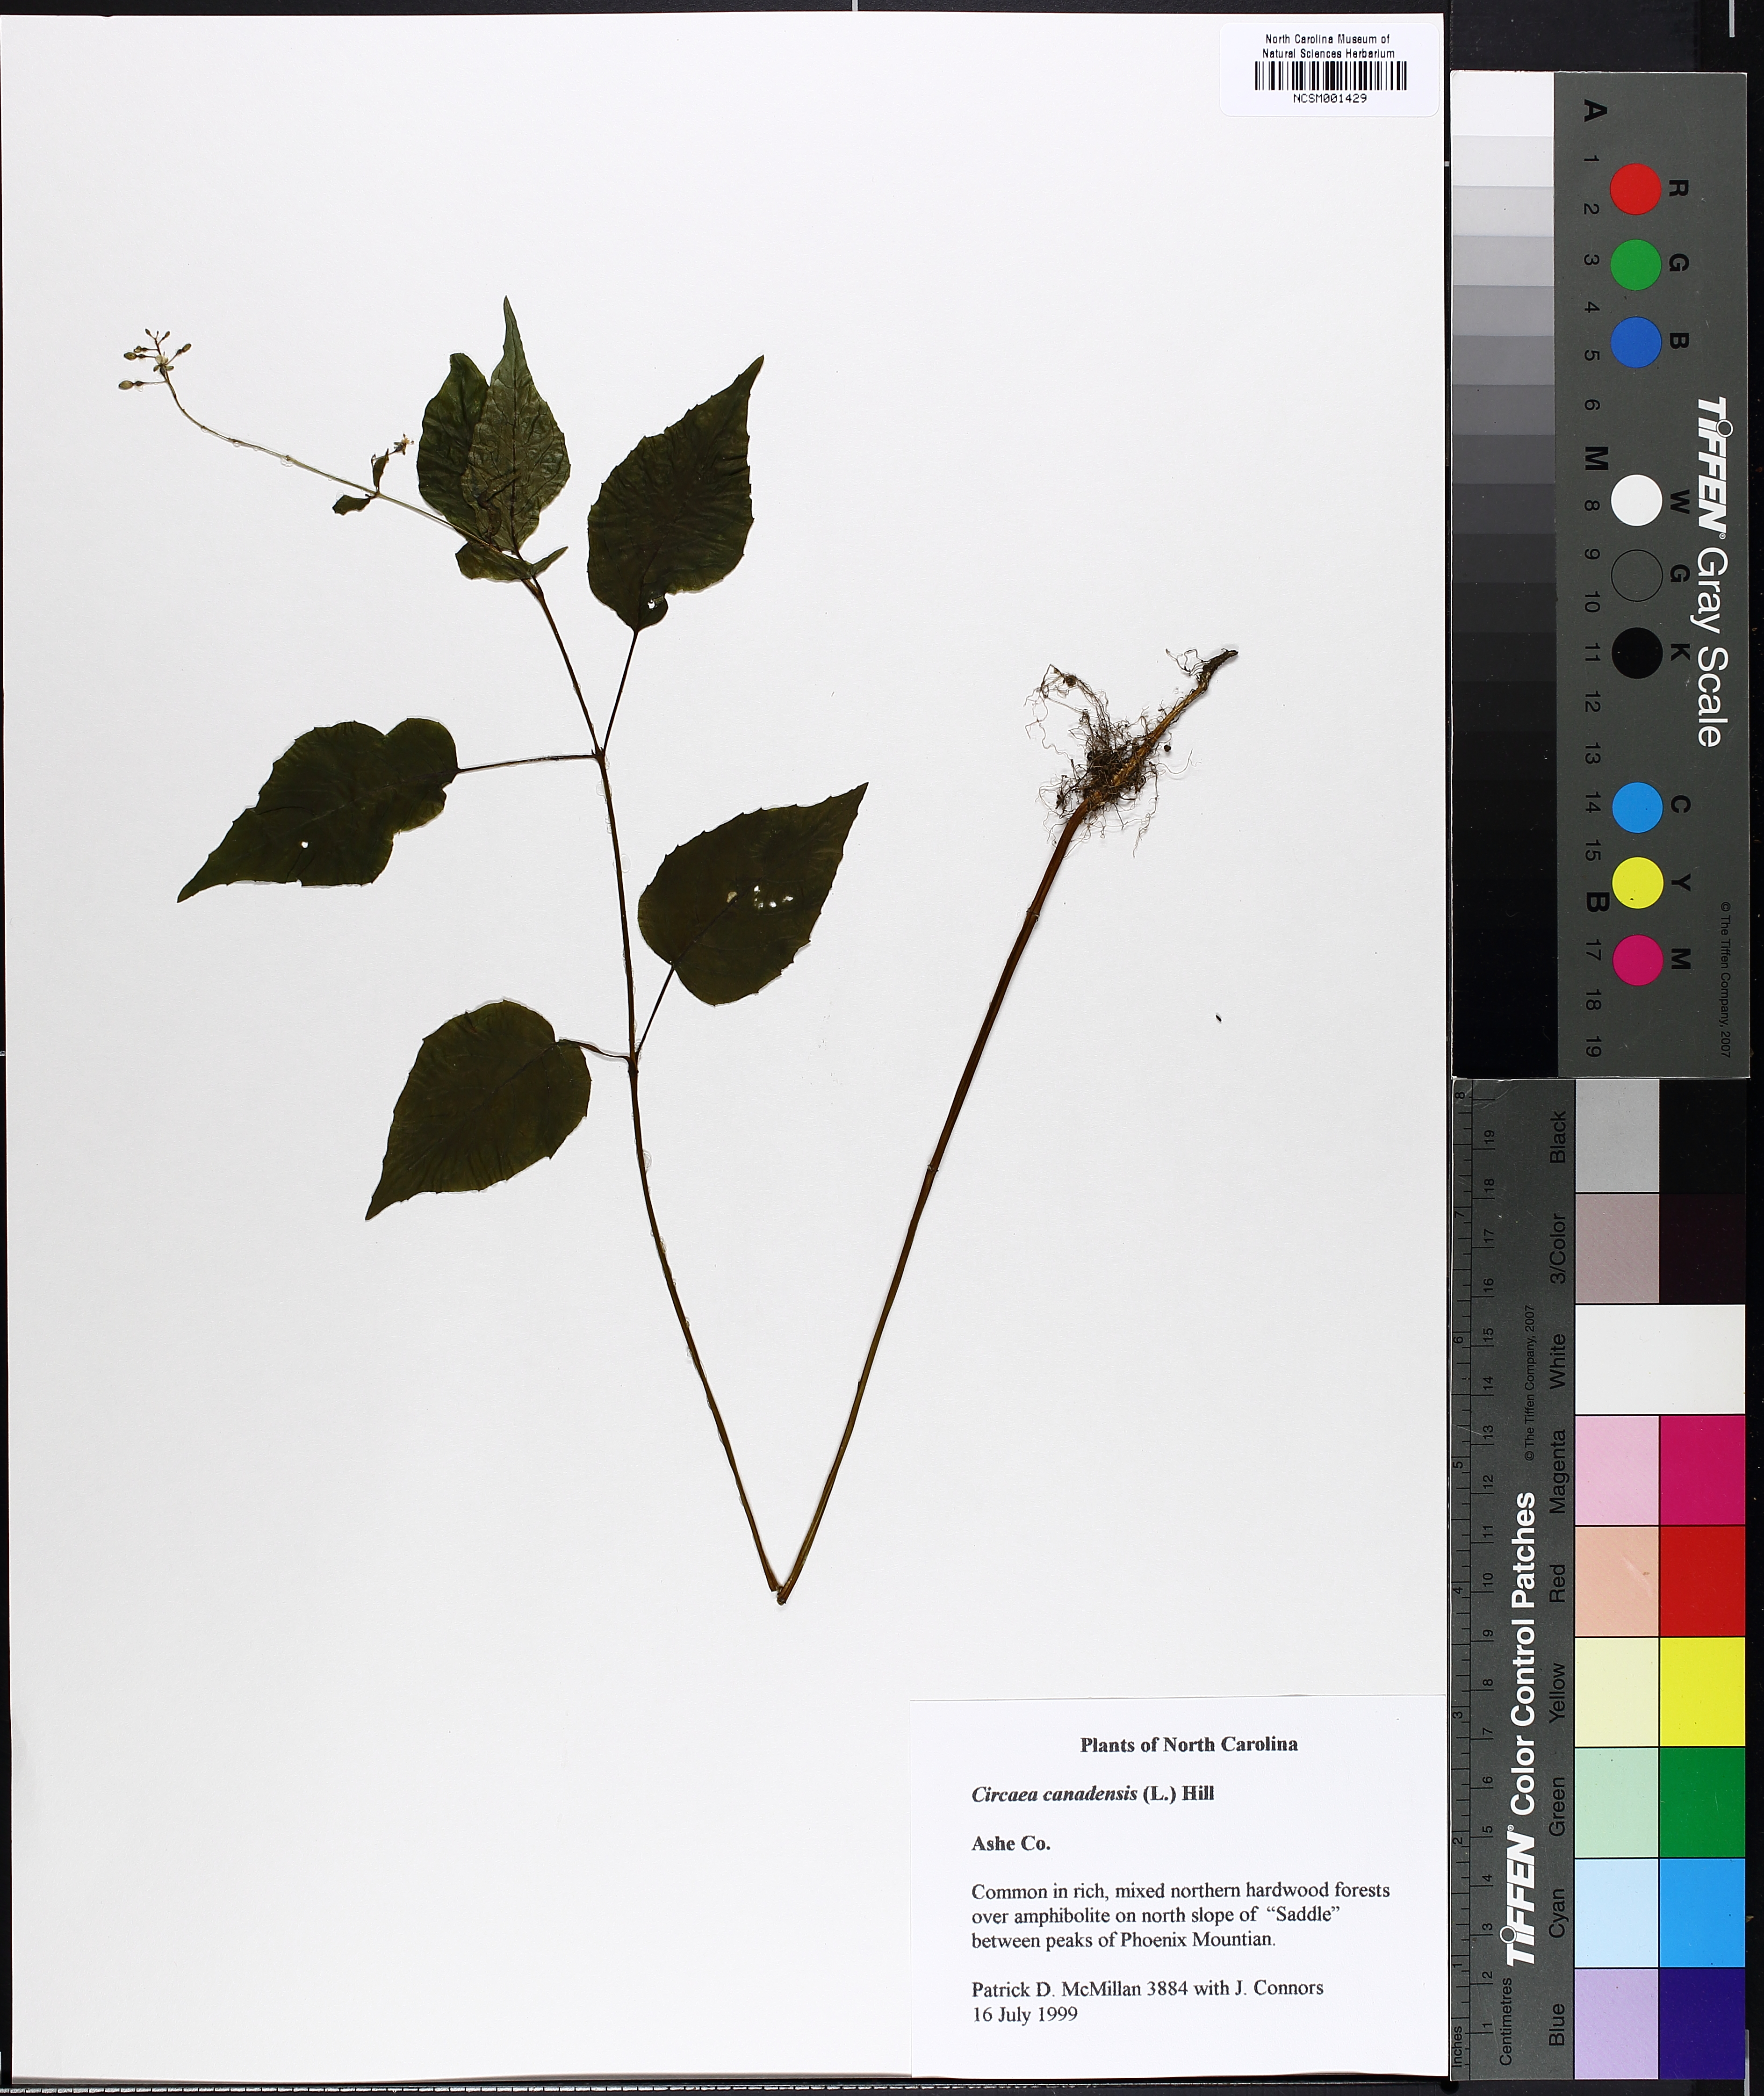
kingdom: Plantae
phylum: Tracheophyta
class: Magnoliopsida
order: Myrtales
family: Onagraceae
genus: Circaea
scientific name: Circaea canadensis
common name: Broad-leaved enchanter's nightshade
